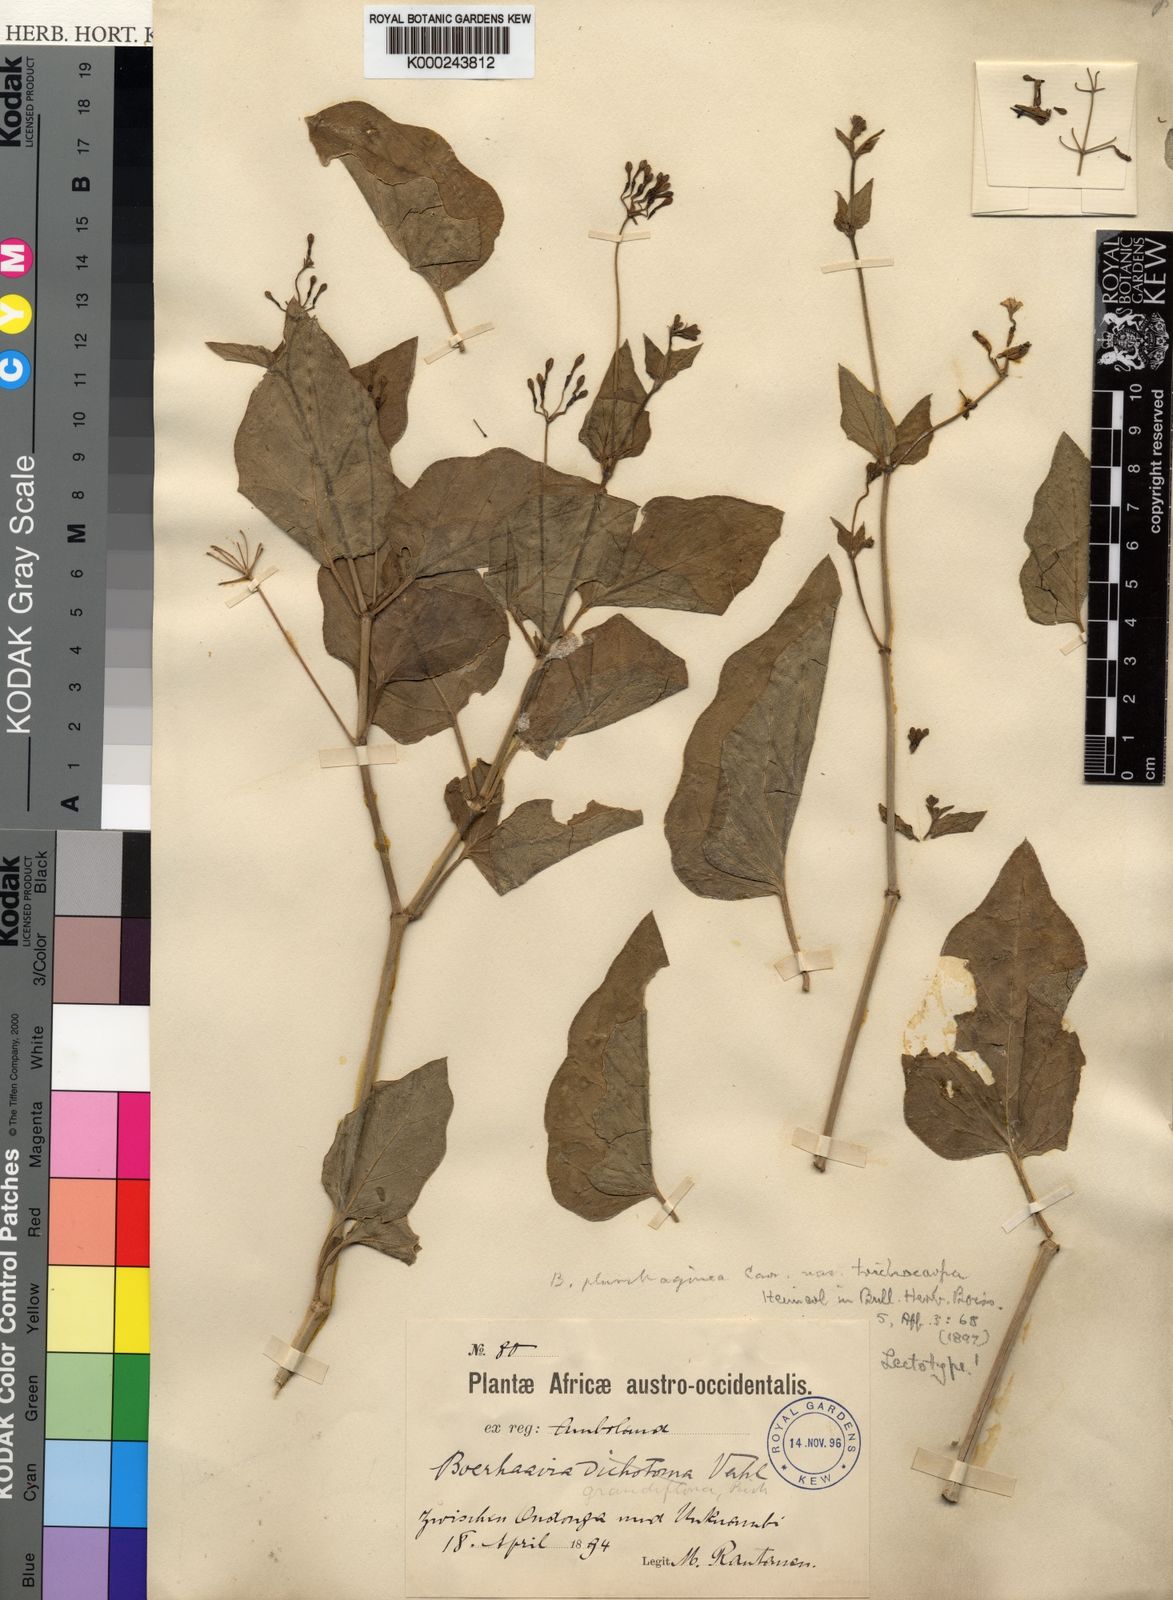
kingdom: Plantae
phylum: Tracheophyta
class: Magnoliopsida
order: Caryophyllales
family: Nyctaginaceae
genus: Commicarpus
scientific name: Commicarpus plumbagineus
